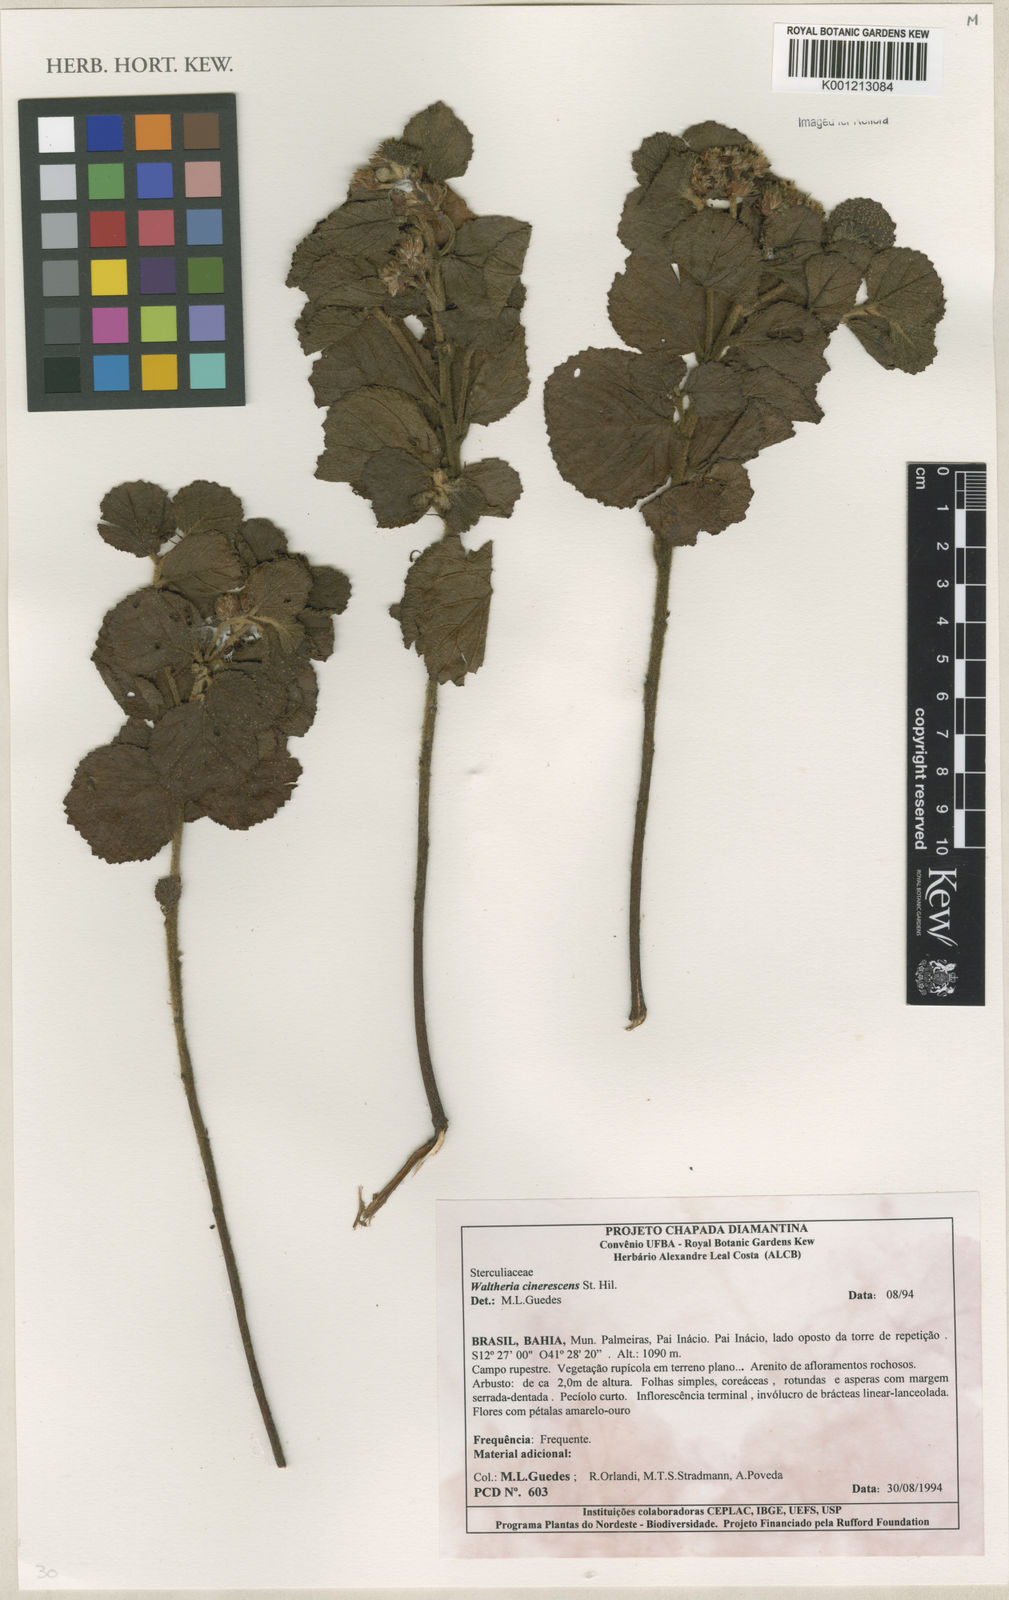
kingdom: Plantae
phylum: Tracheophyta
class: Magnoliopsida
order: Malvales
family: Malvaceae
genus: Waltheria
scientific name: Waltheria cinerescens
